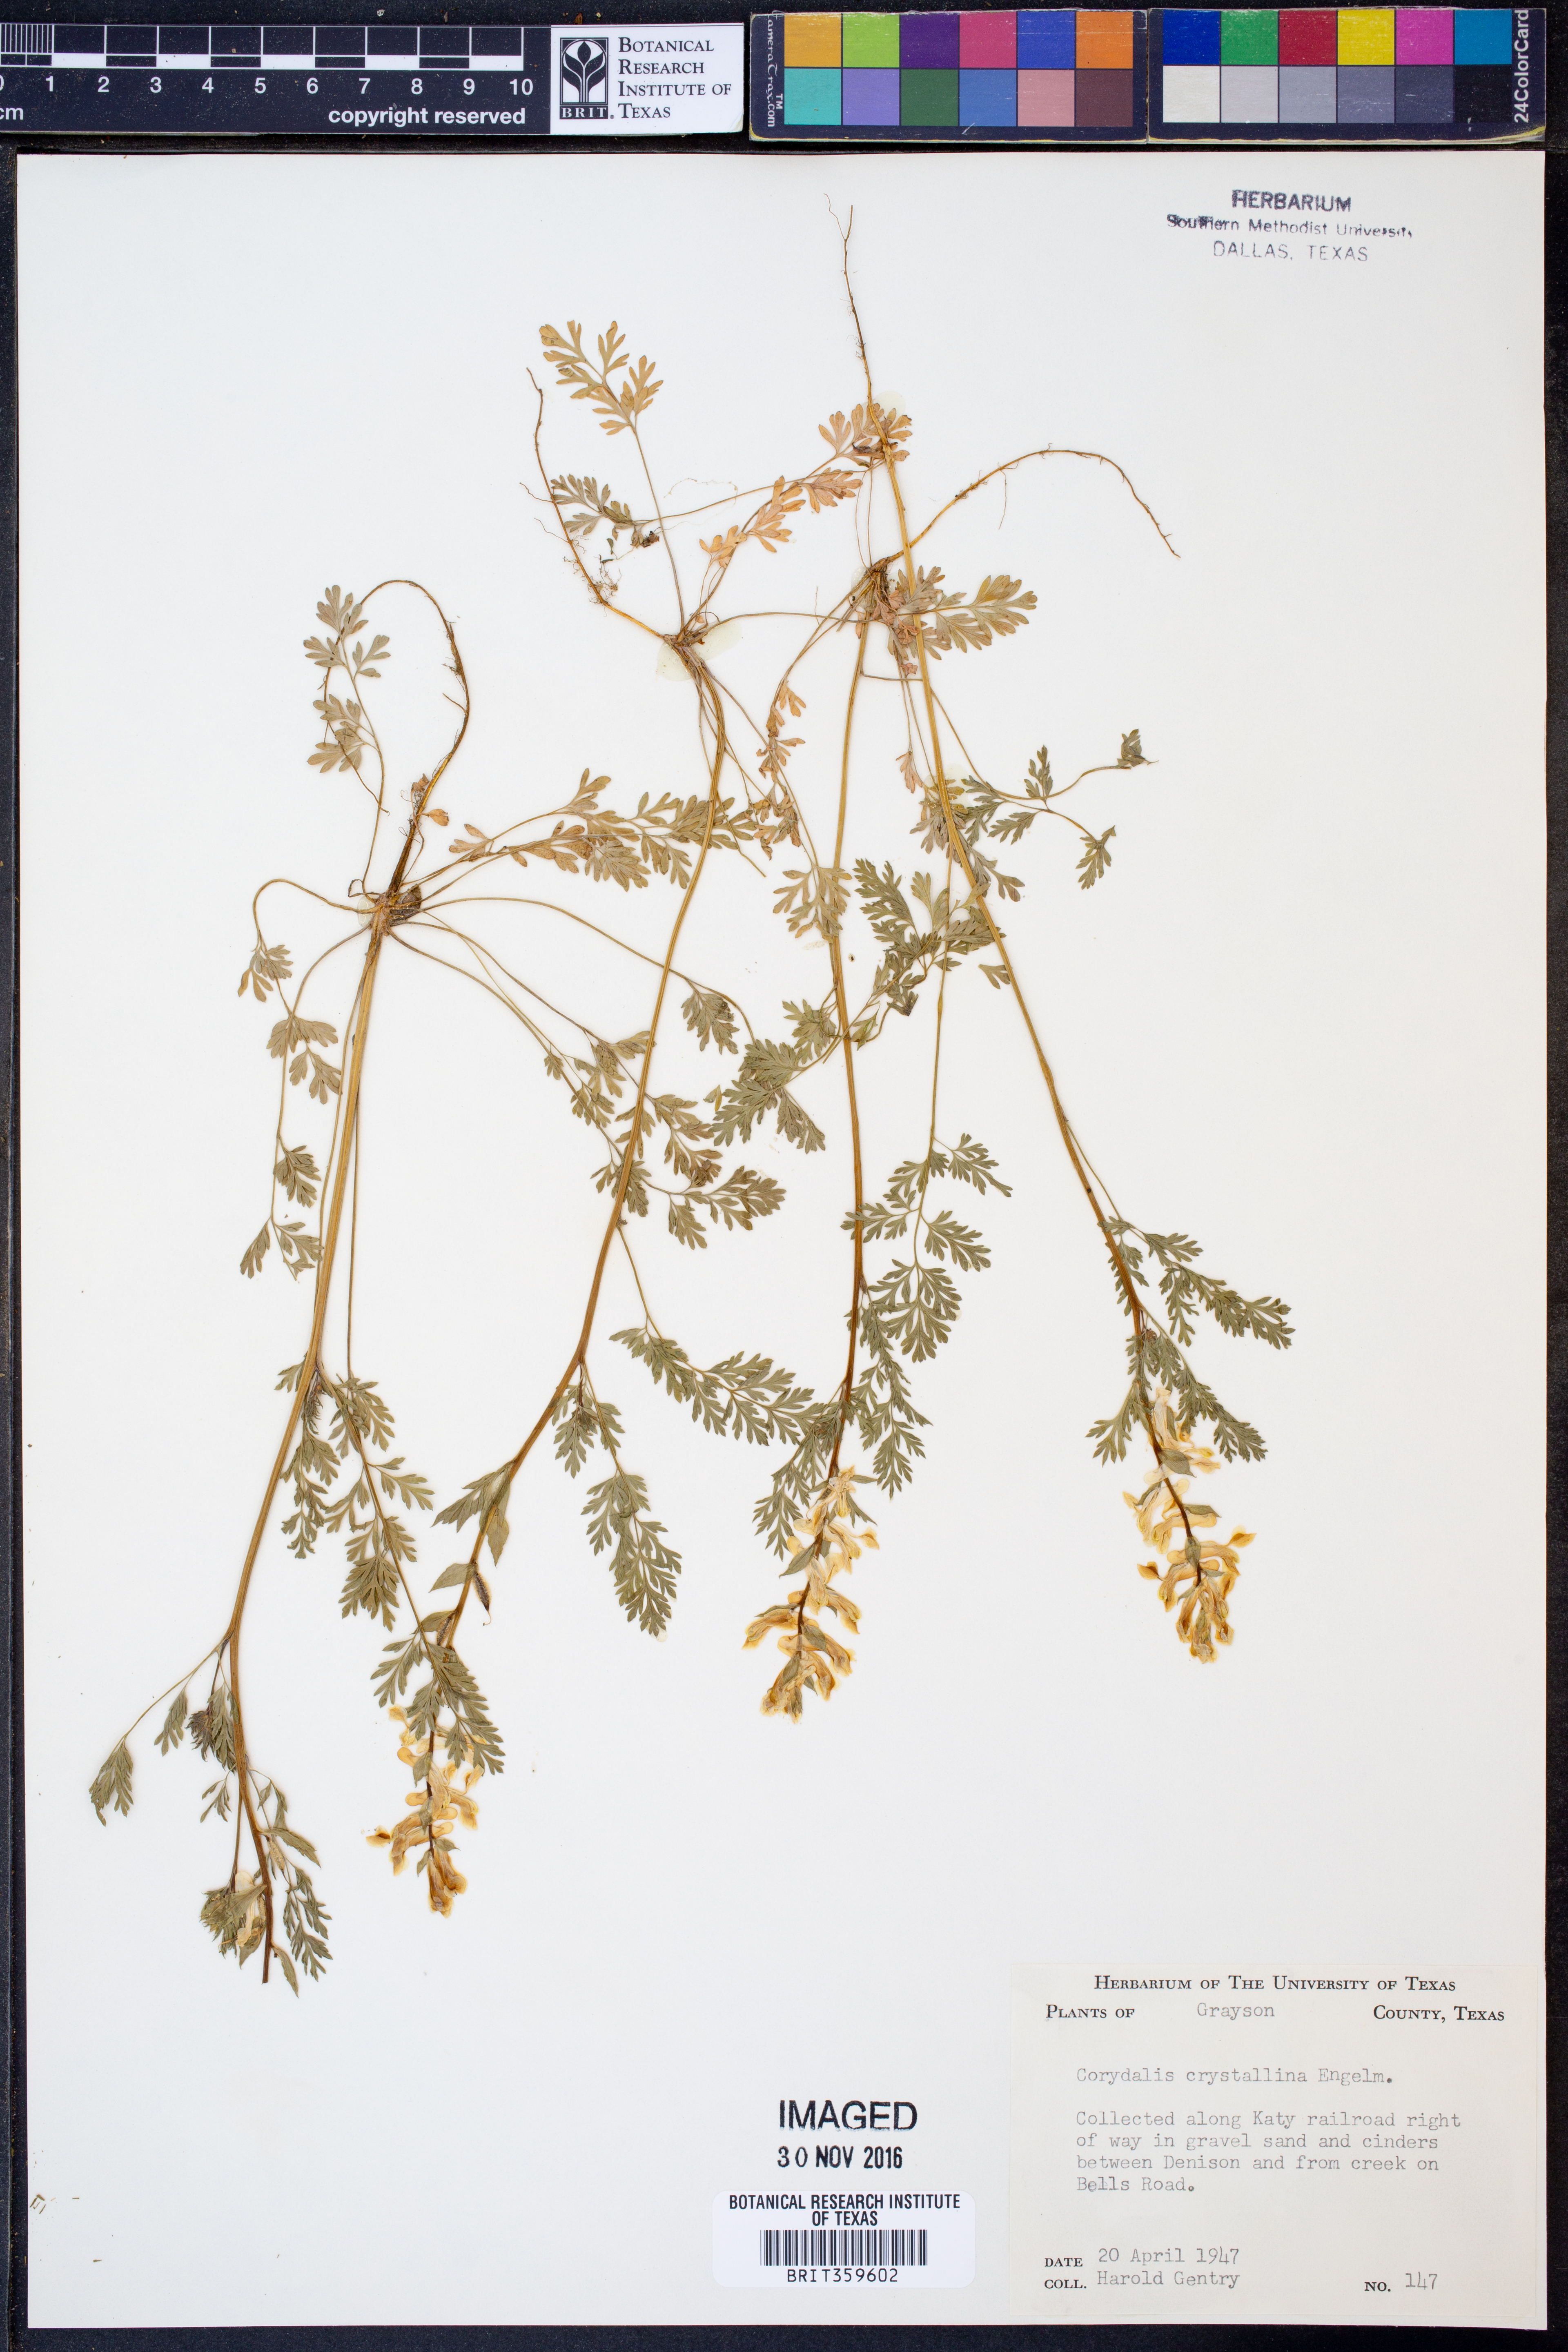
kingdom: Plantae
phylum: Tracheophyta
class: Magnoliopsida
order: Ranunculales
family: Papaveraceae
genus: Corydalis
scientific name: Corydalis crystallina
